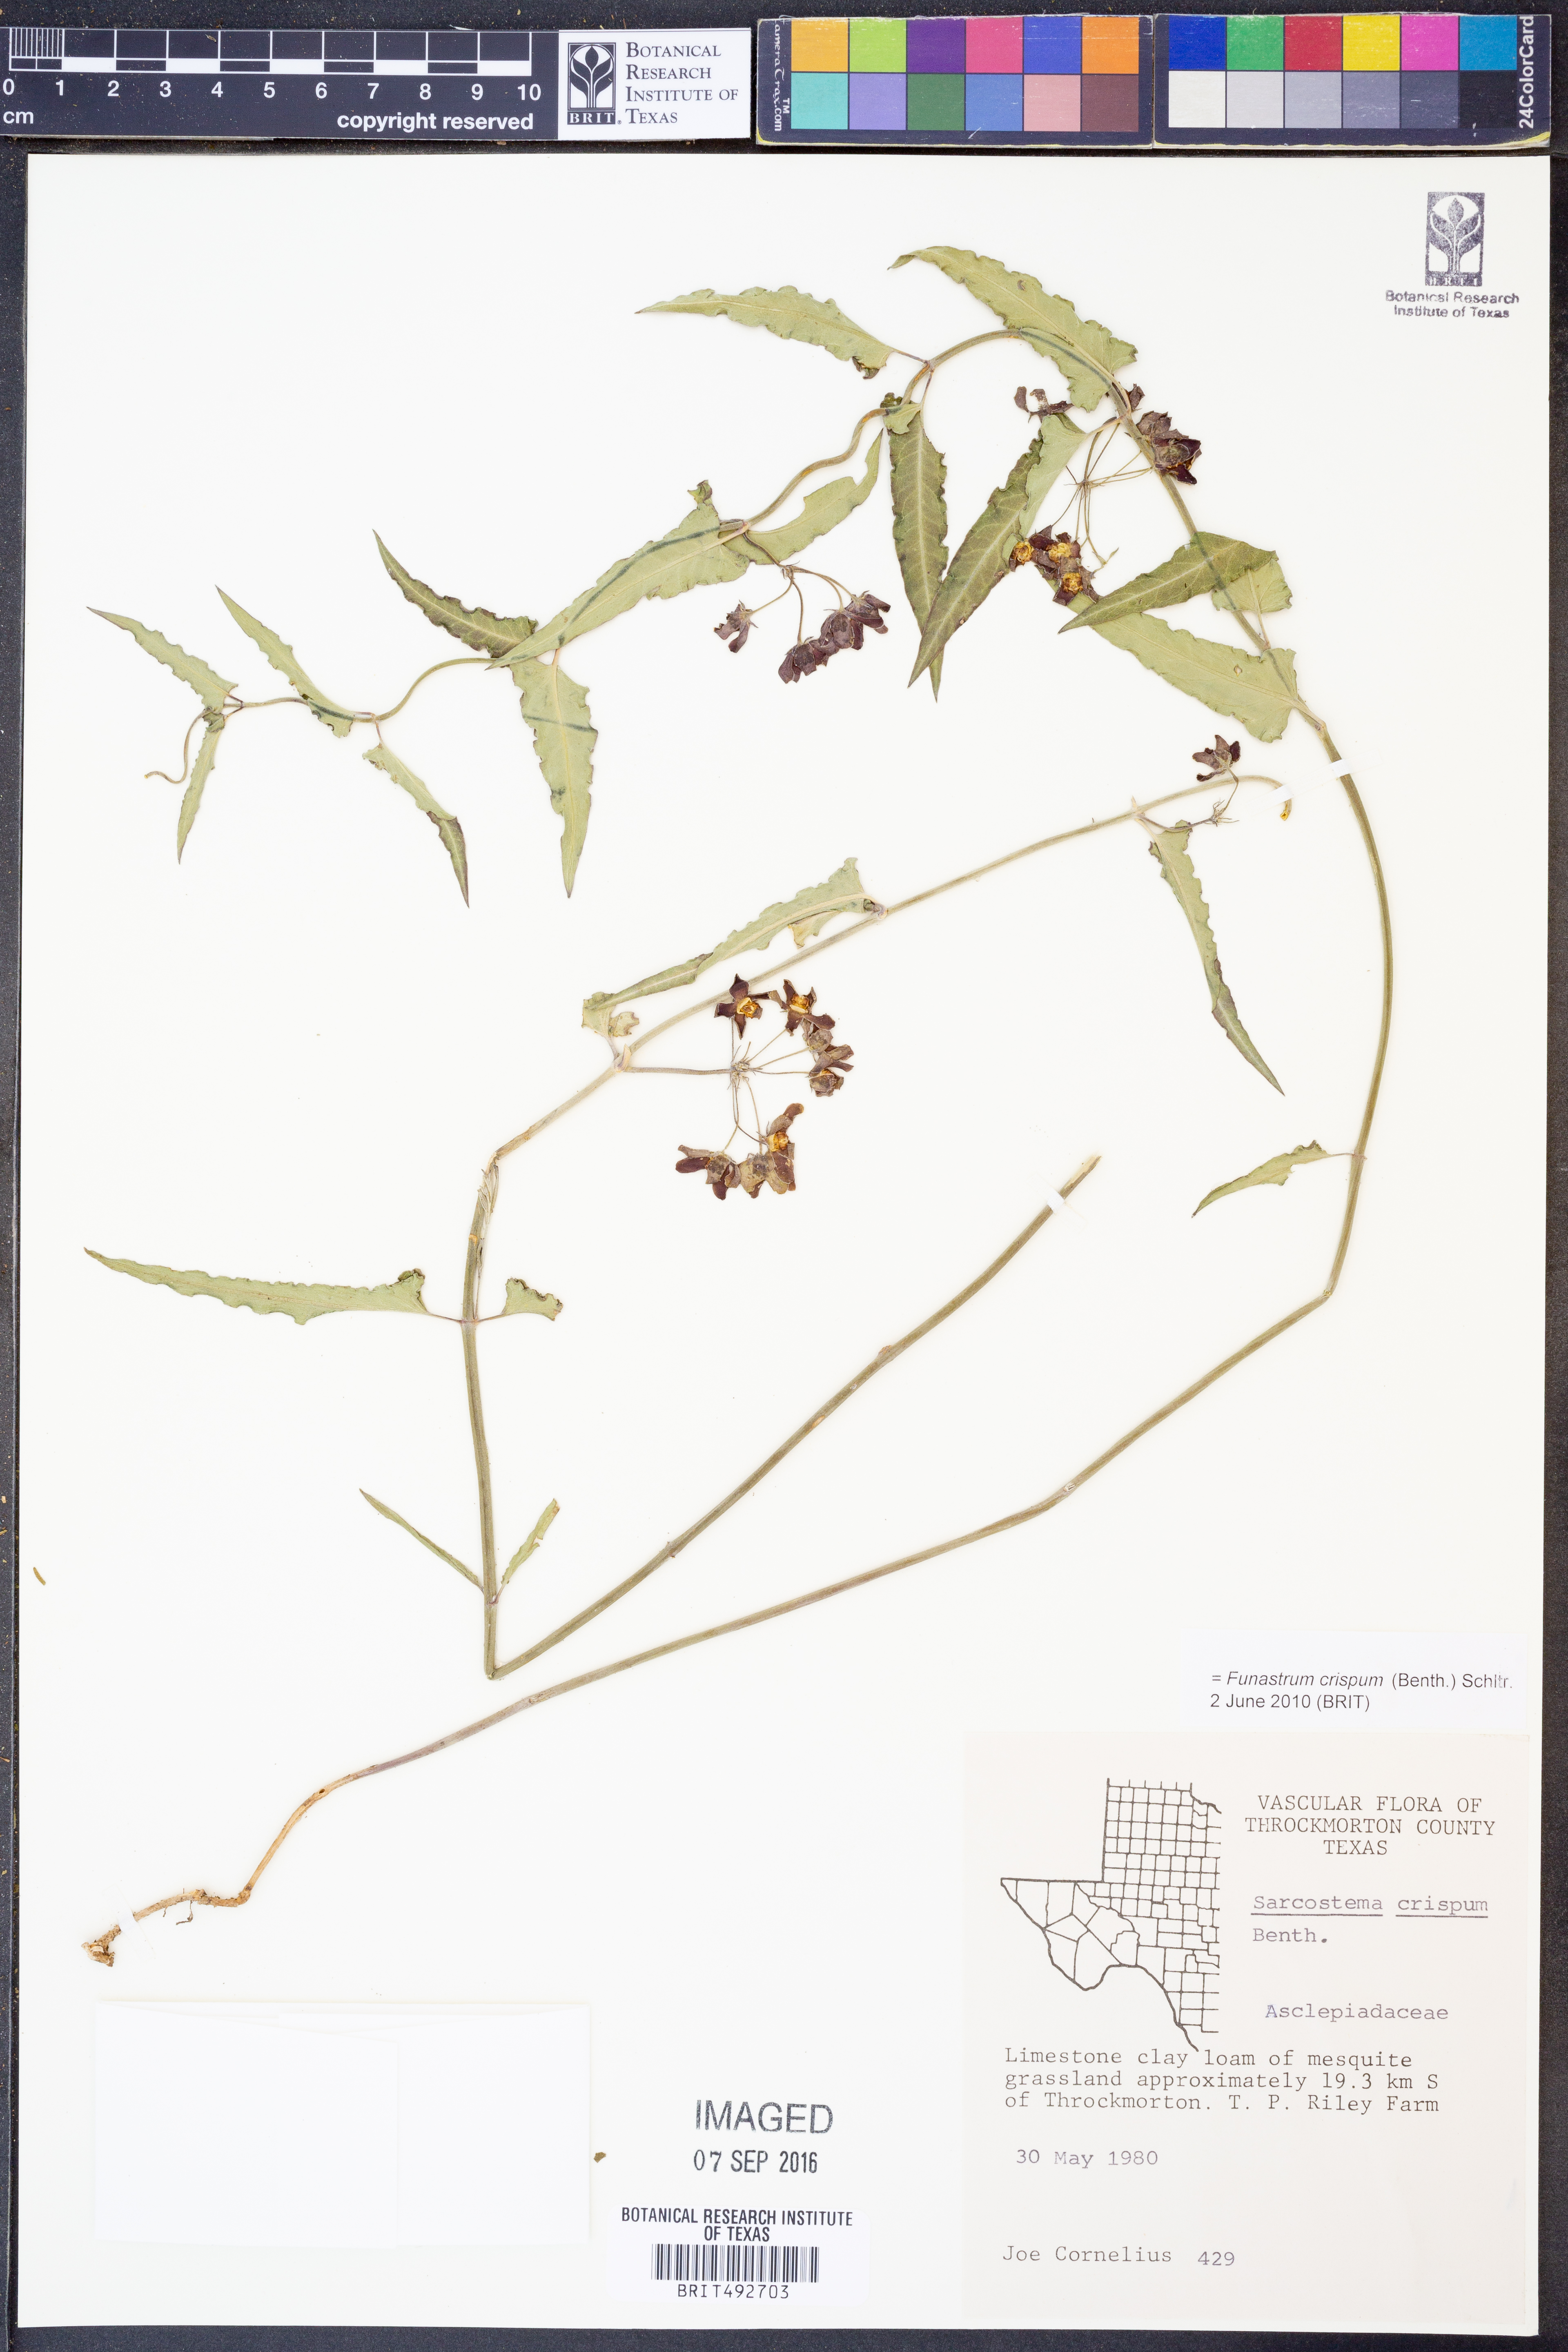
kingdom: Plantae
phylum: Tracheophyta
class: Magnoliopsida
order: Gentianales
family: Apocynaceae
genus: Funastrum
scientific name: Funastrum crispum
